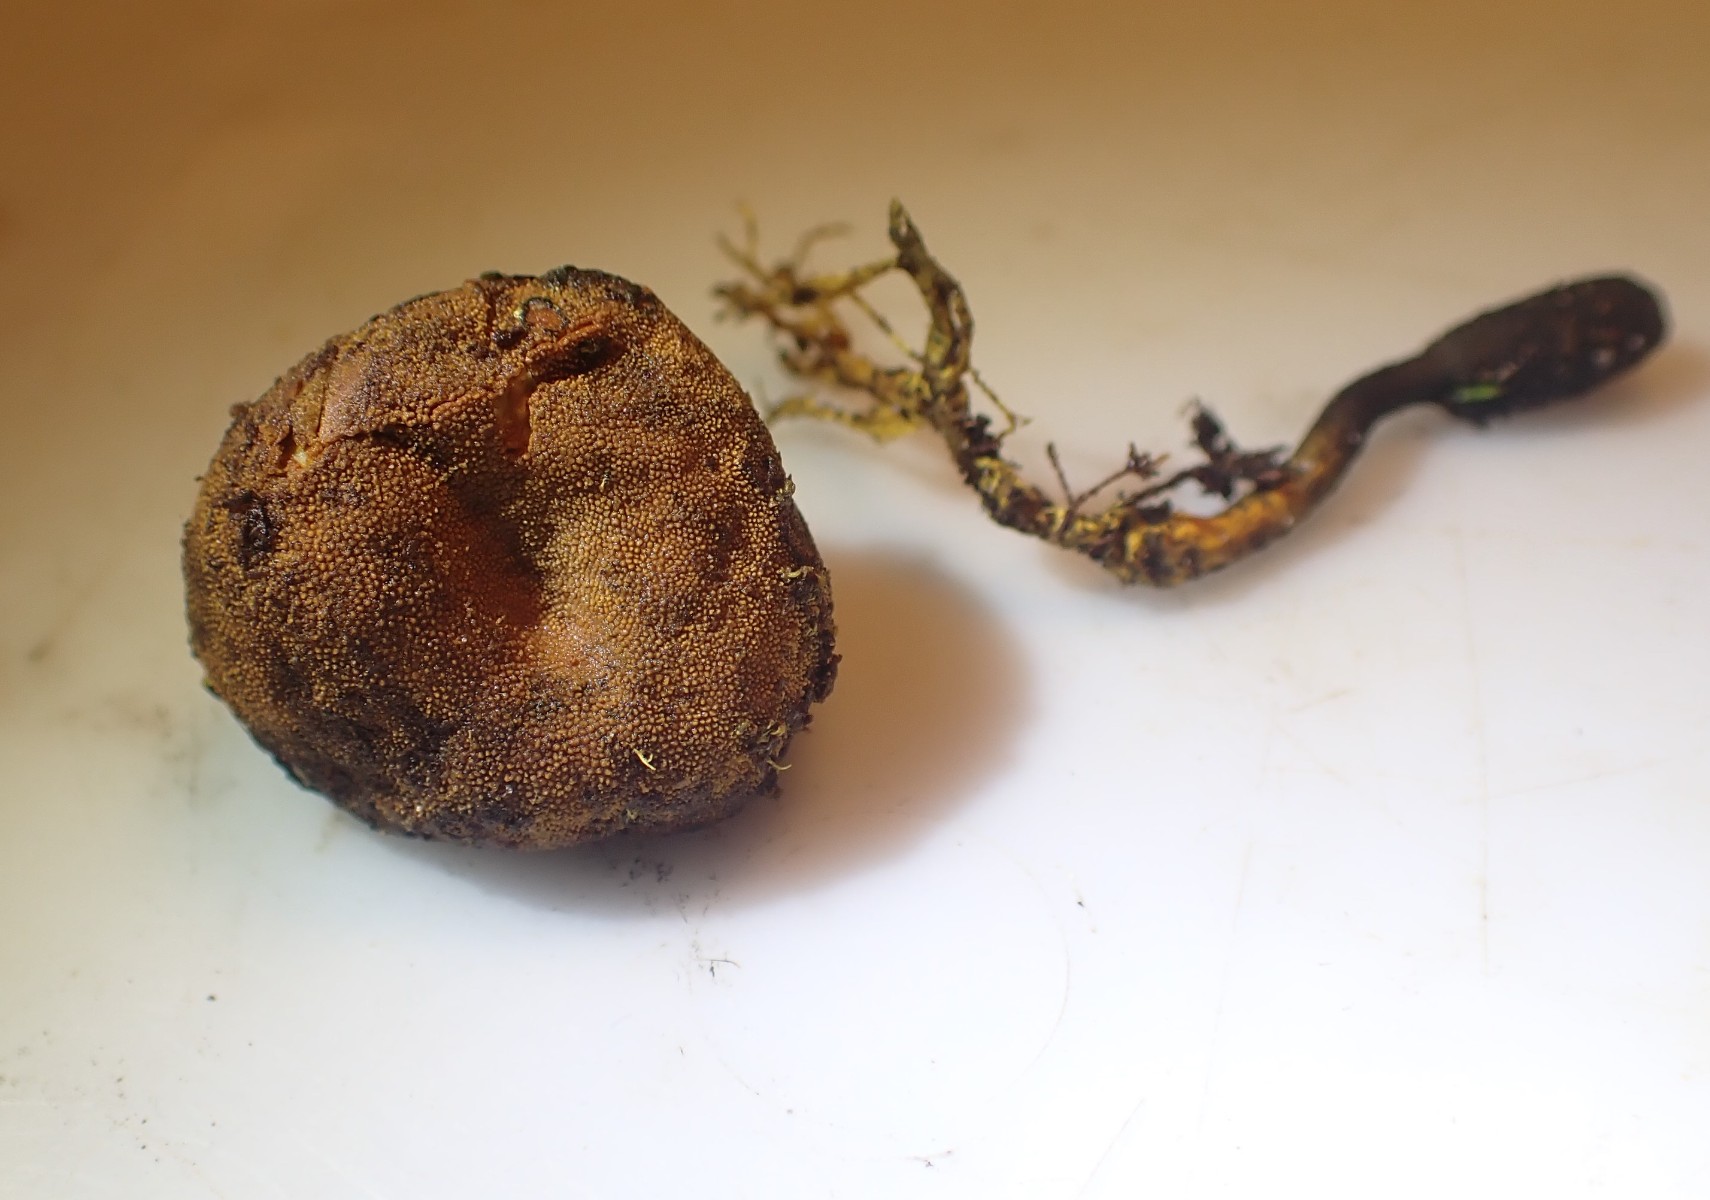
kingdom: Fungi
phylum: Ascomycota
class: Eurotiomycetes
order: Eurotiales
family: Elaphomycetaceae
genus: Elaphomyces
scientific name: Elaphomyces granulatus
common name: grynet hjortetrøffel
